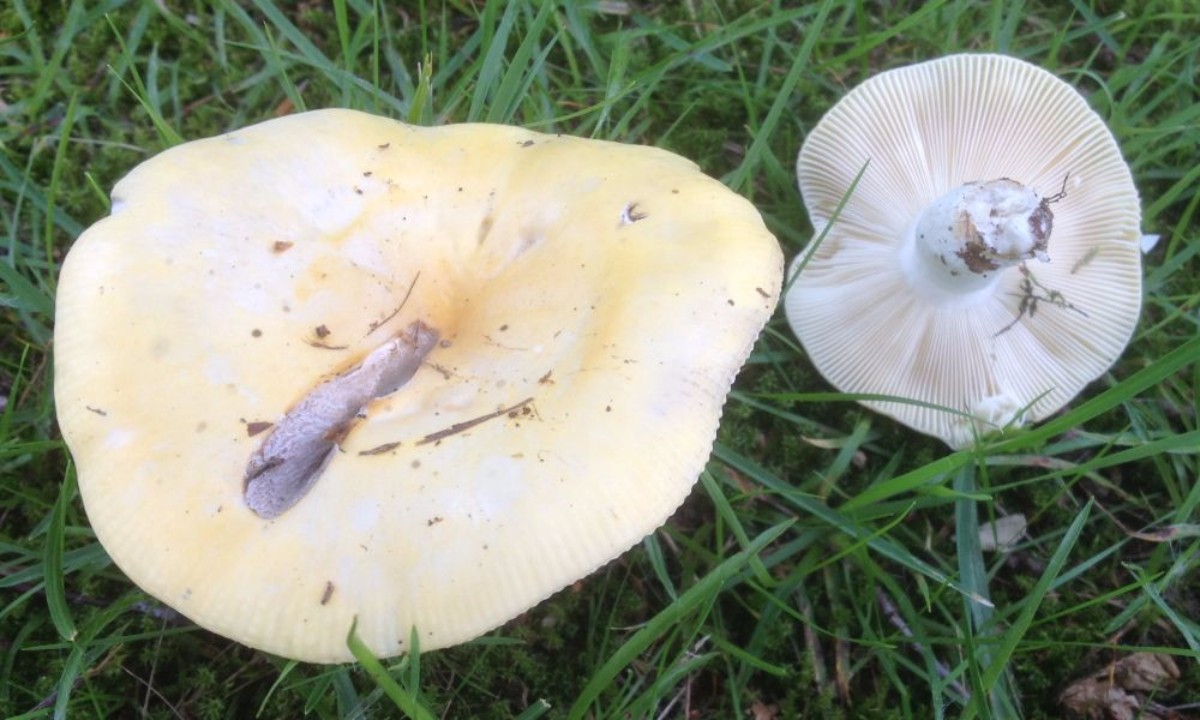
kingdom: Fungi
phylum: Basidiomycota
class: Agaricomycetes
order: Russulales
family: Russulaceae
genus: Russula
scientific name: Russula claroflava
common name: birke-skørhat
